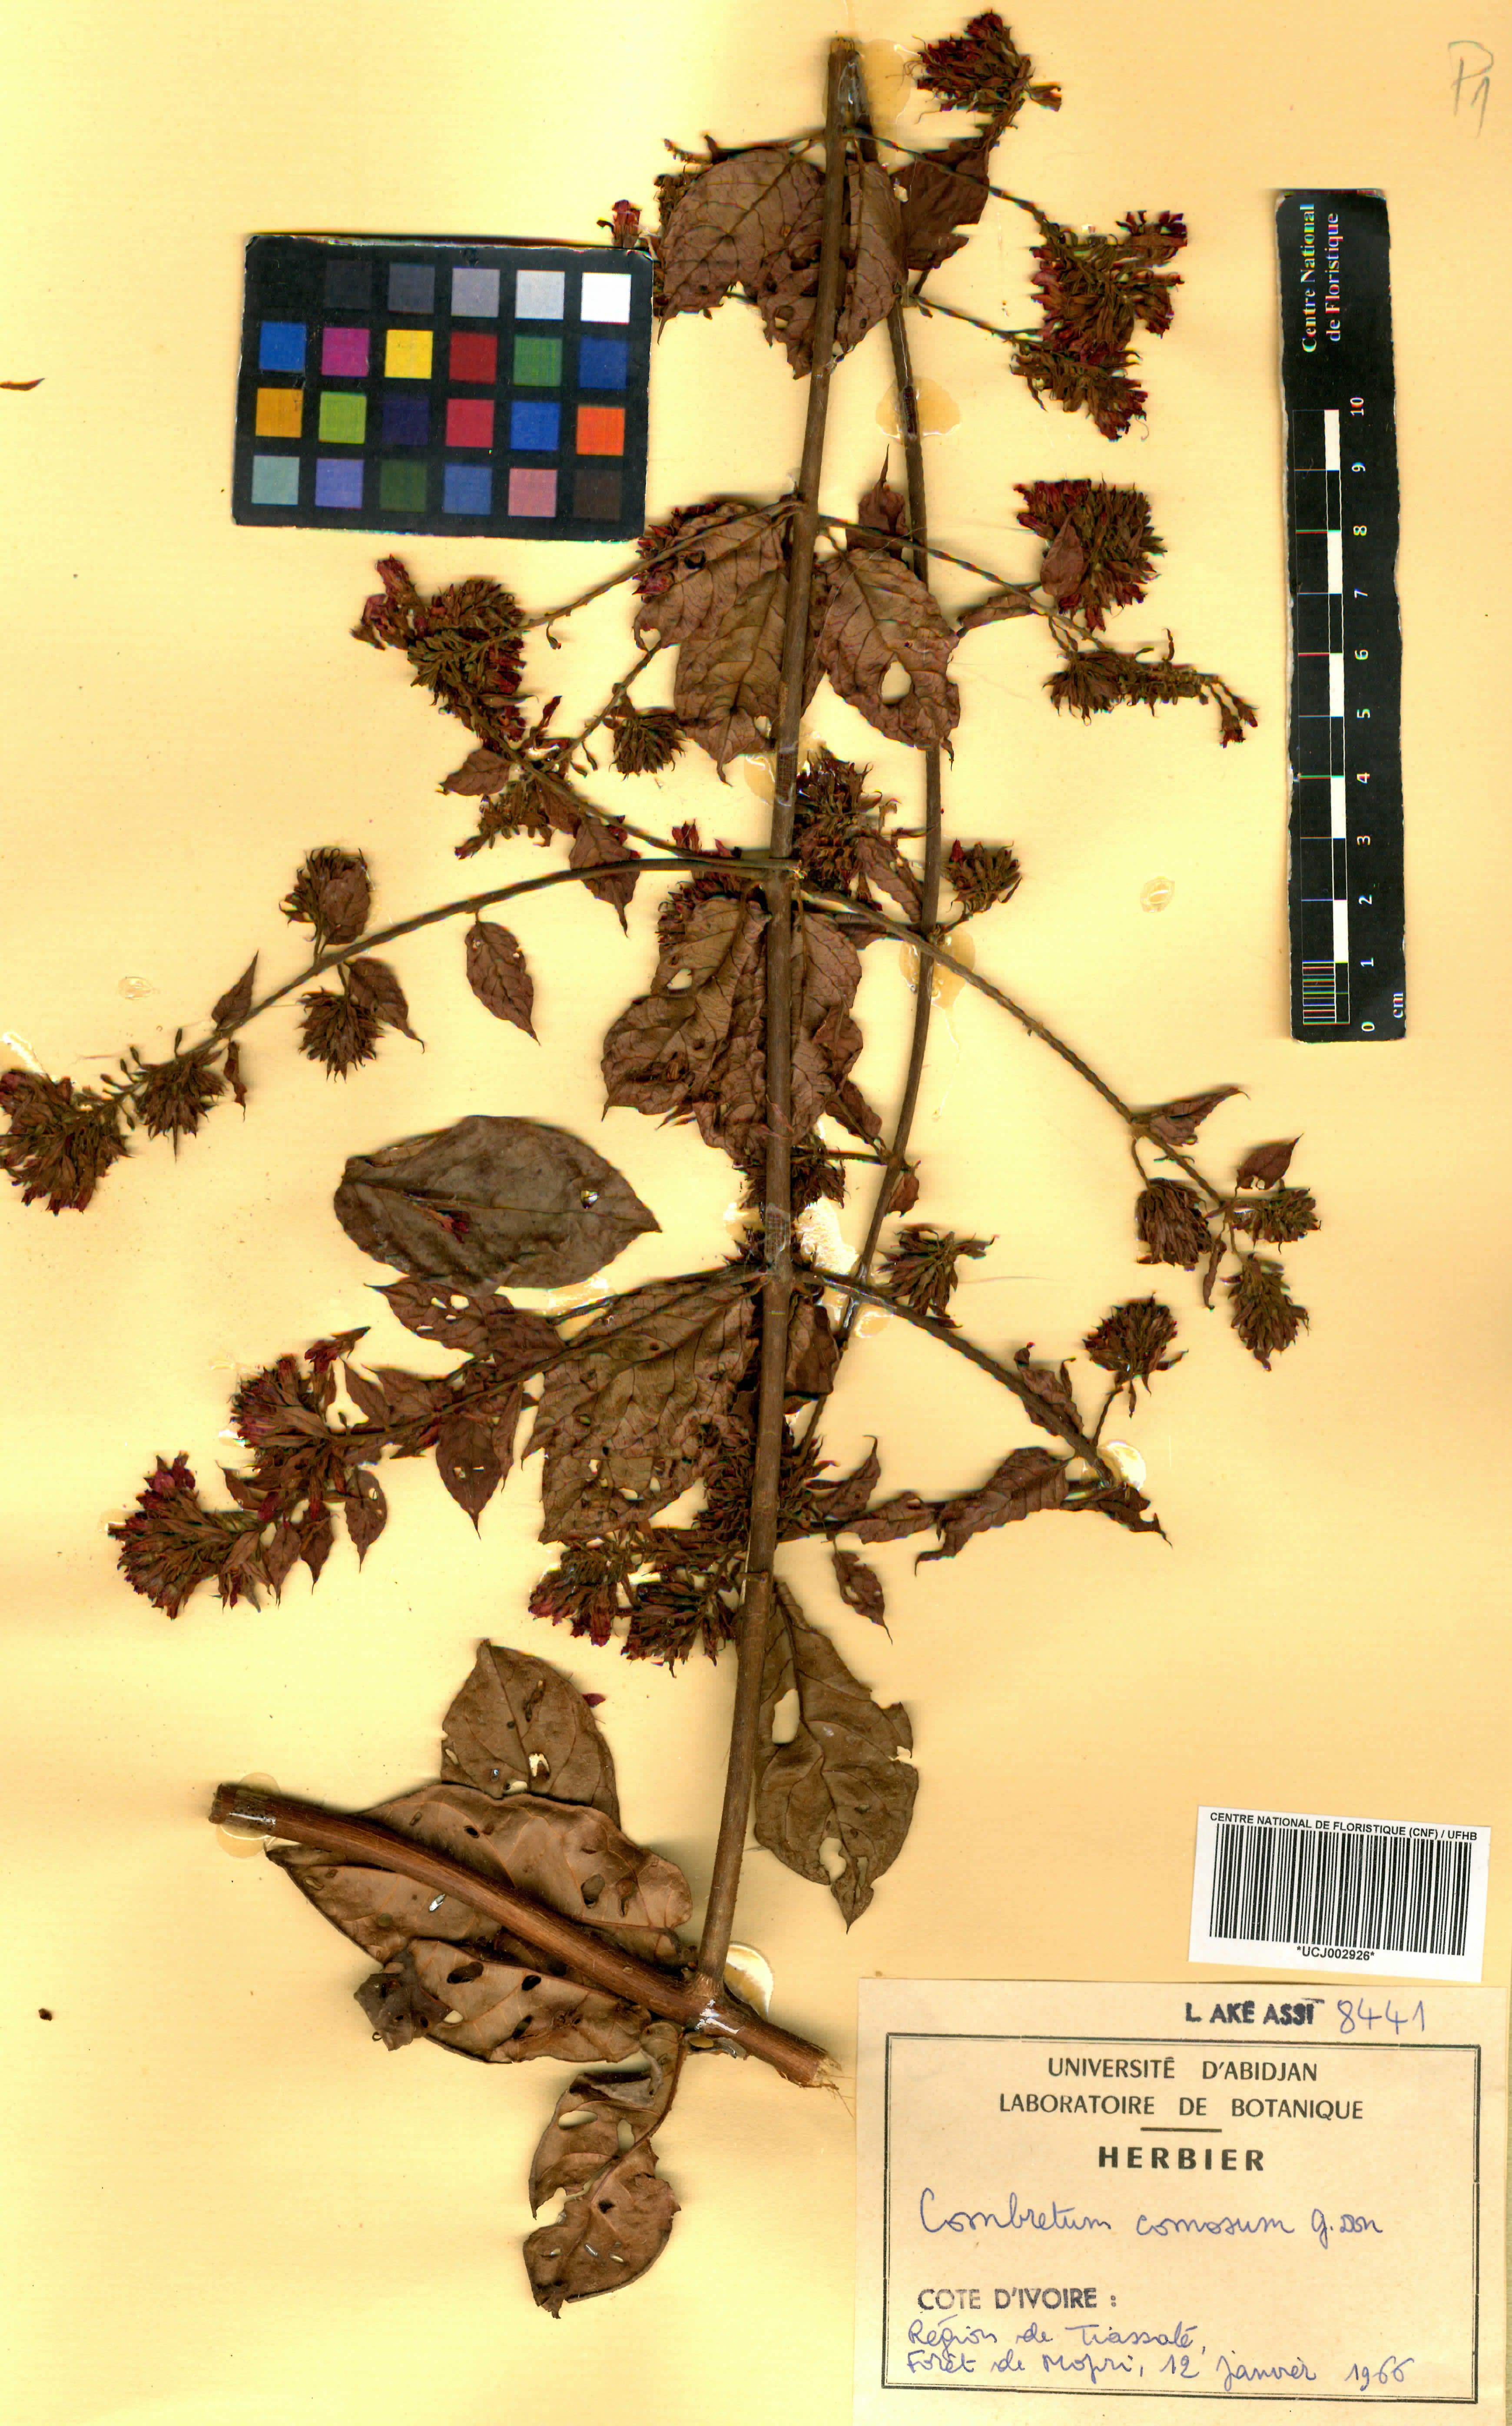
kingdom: Plantae
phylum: Tracheophyta
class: Magnoliopsida
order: Myrtales
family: Combretaceae
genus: Combretum
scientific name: Combretum comosum
